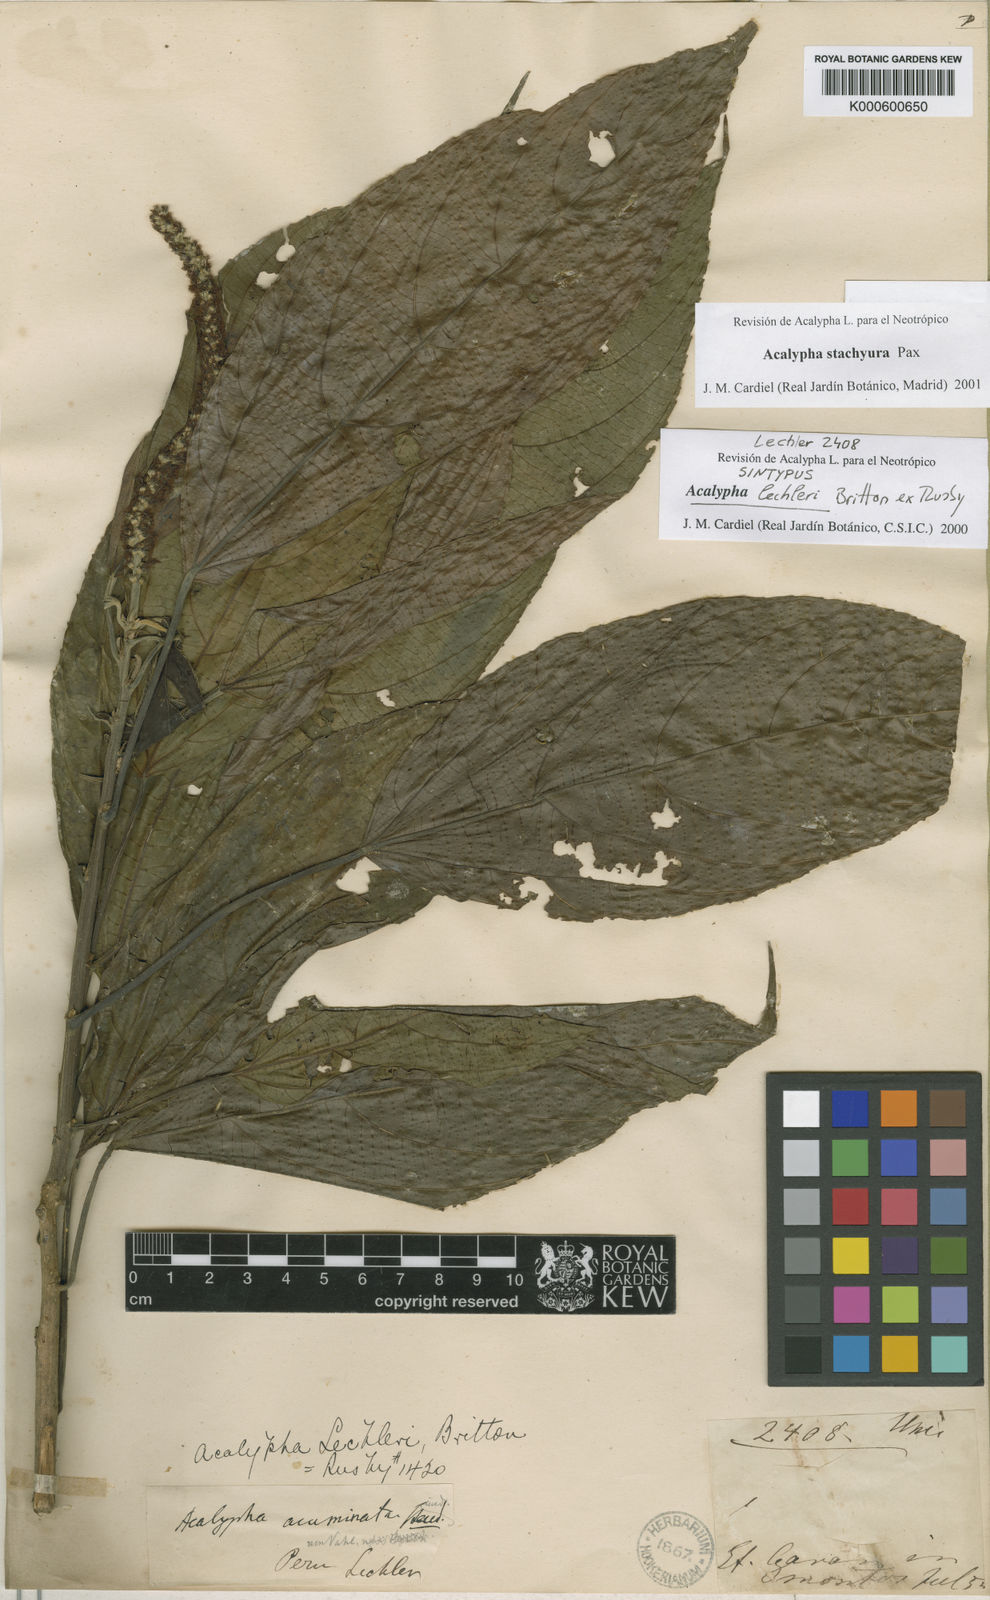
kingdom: Plantae
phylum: Tracheophyta
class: Magnoliopsida
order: Malpighiales
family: Euphorbiaceae
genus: Acalypha
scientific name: Acalypha stachyura
